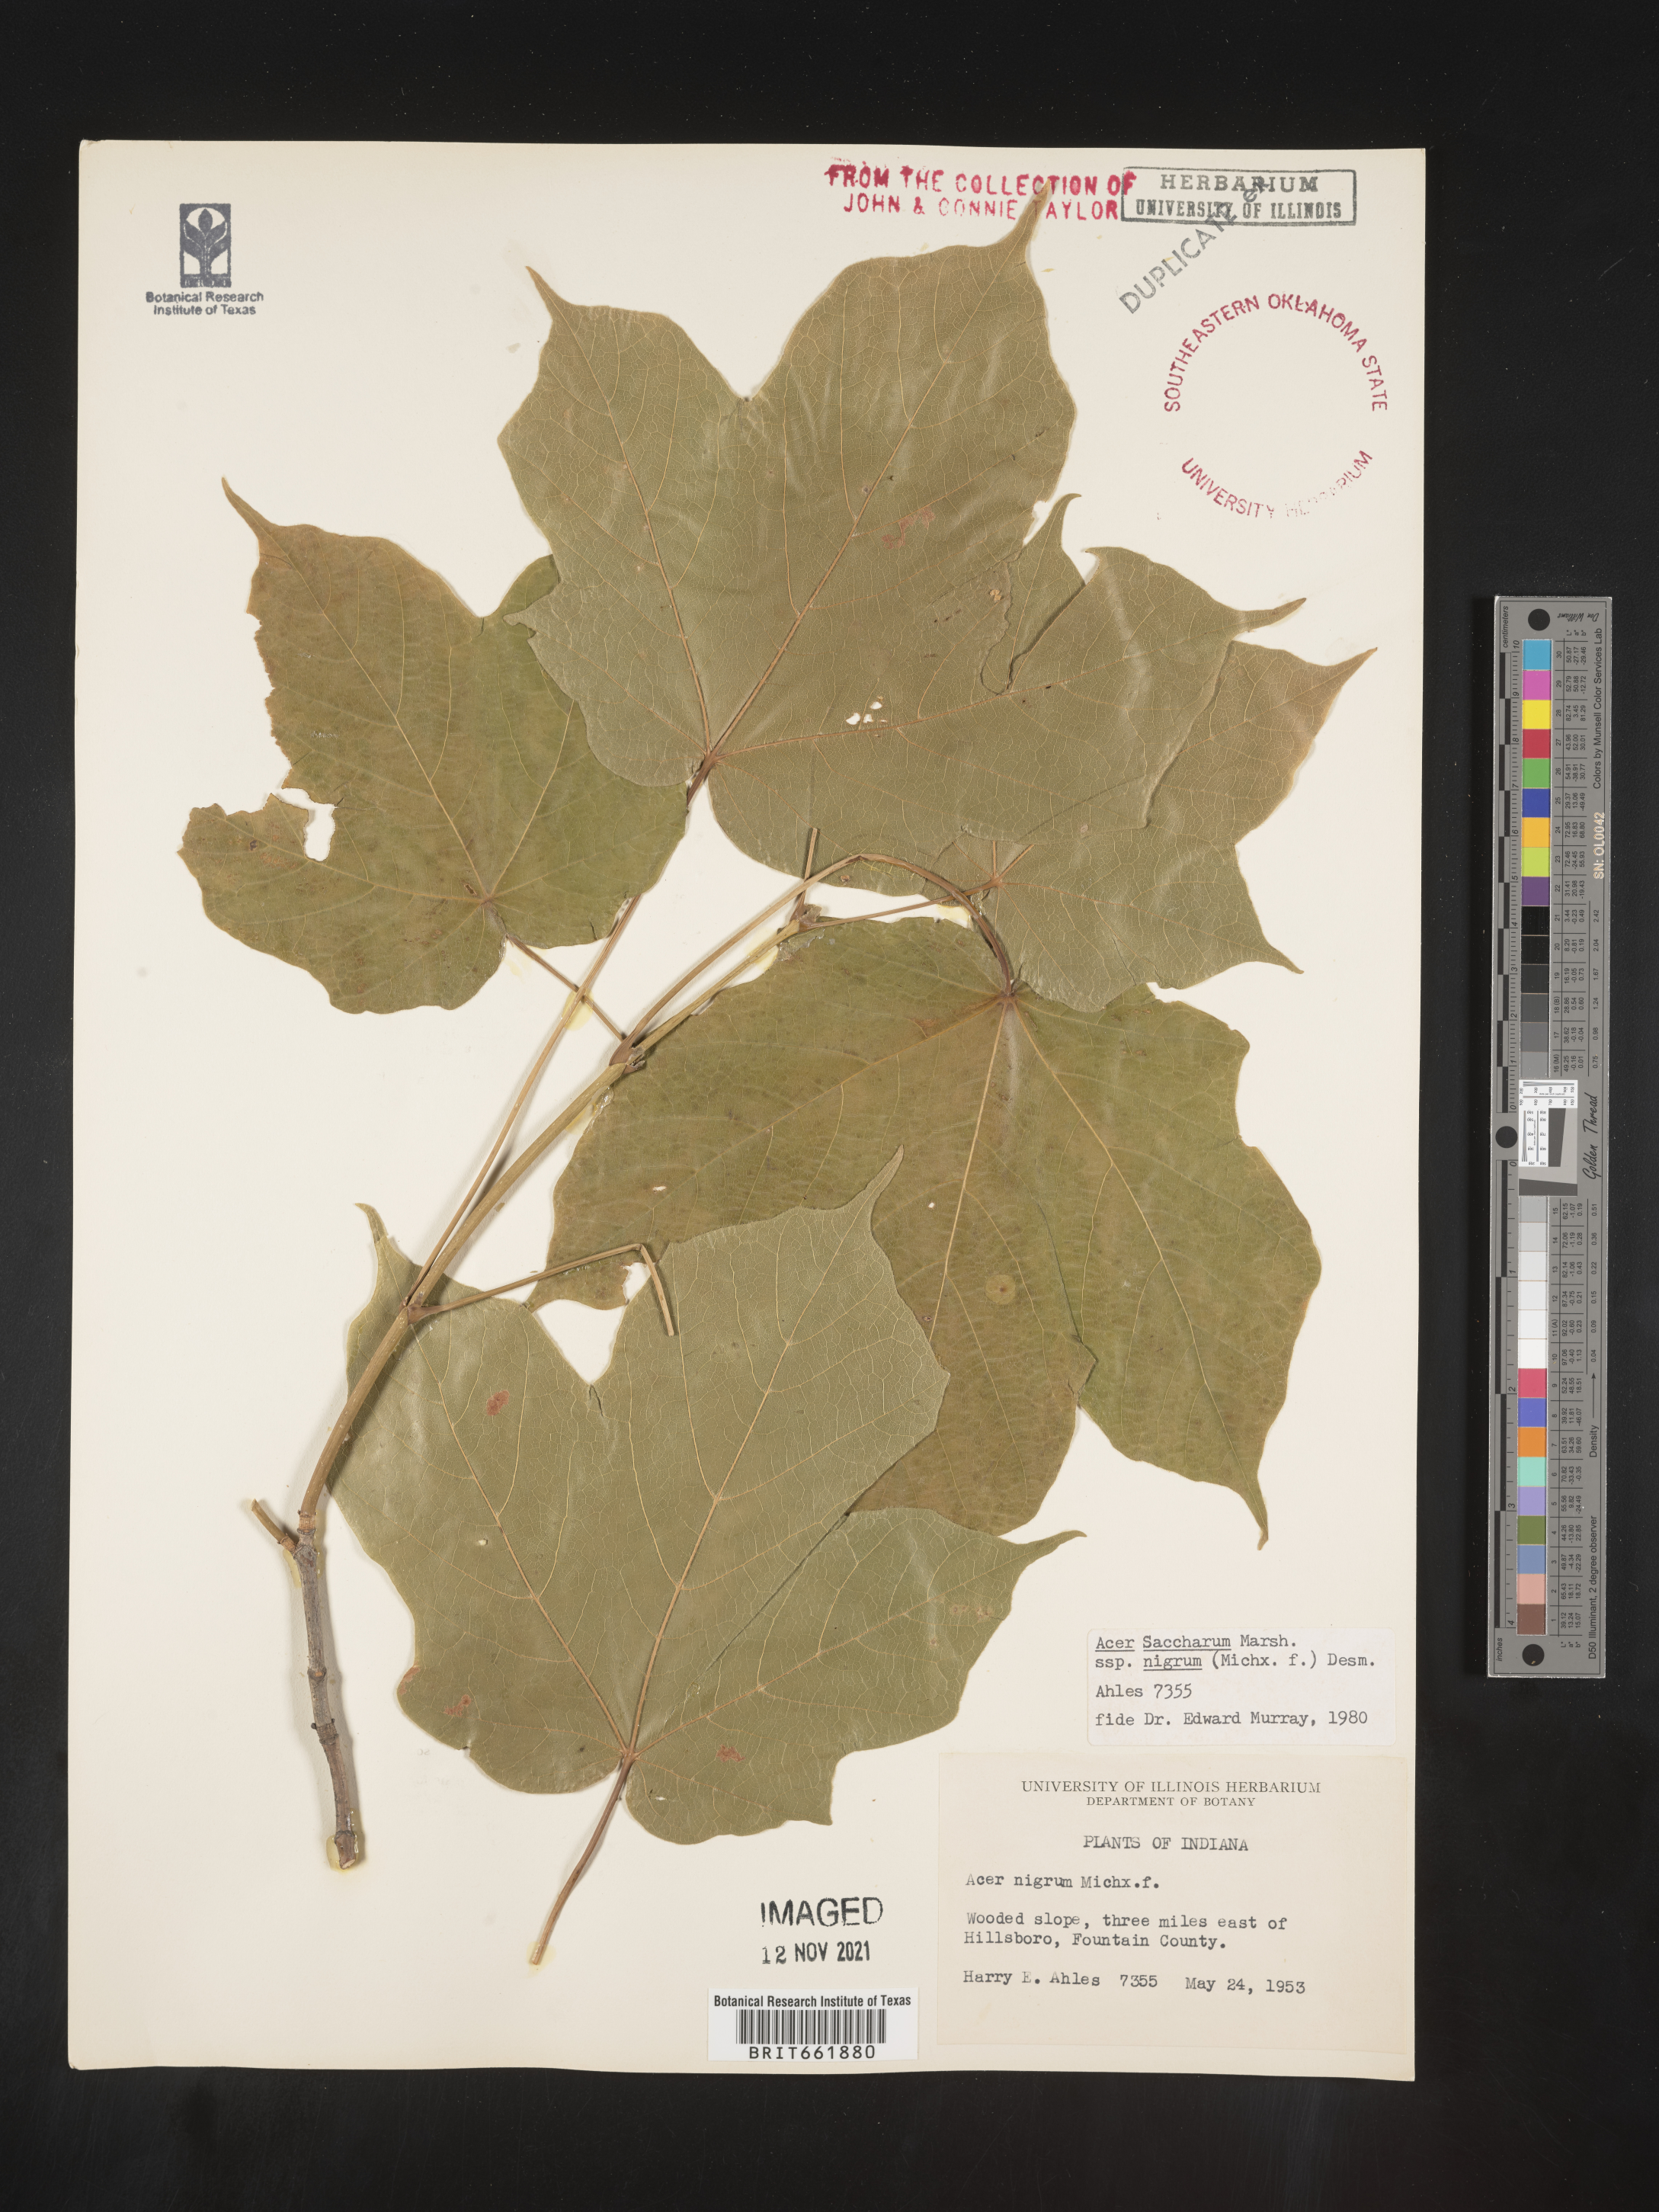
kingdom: Plantae
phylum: Tracheophyta
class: Magnoliopsida
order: Sapindales
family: Sapindaceae
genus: Acer
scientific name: Acer nigrum
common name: Black maple
